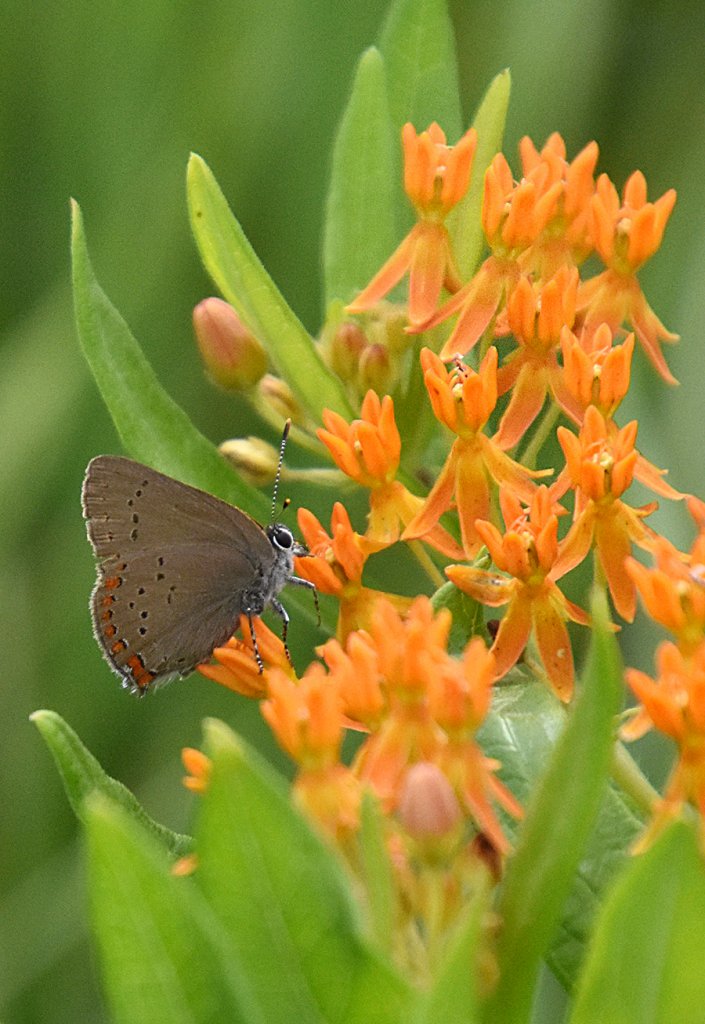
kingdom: Animalia
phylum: Arthropoda
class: Insecta
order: Lepidoptera
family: Lycaenidae
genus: Harkenclenus
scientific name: Harkenclenus titus
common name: Coral Hairstreak
